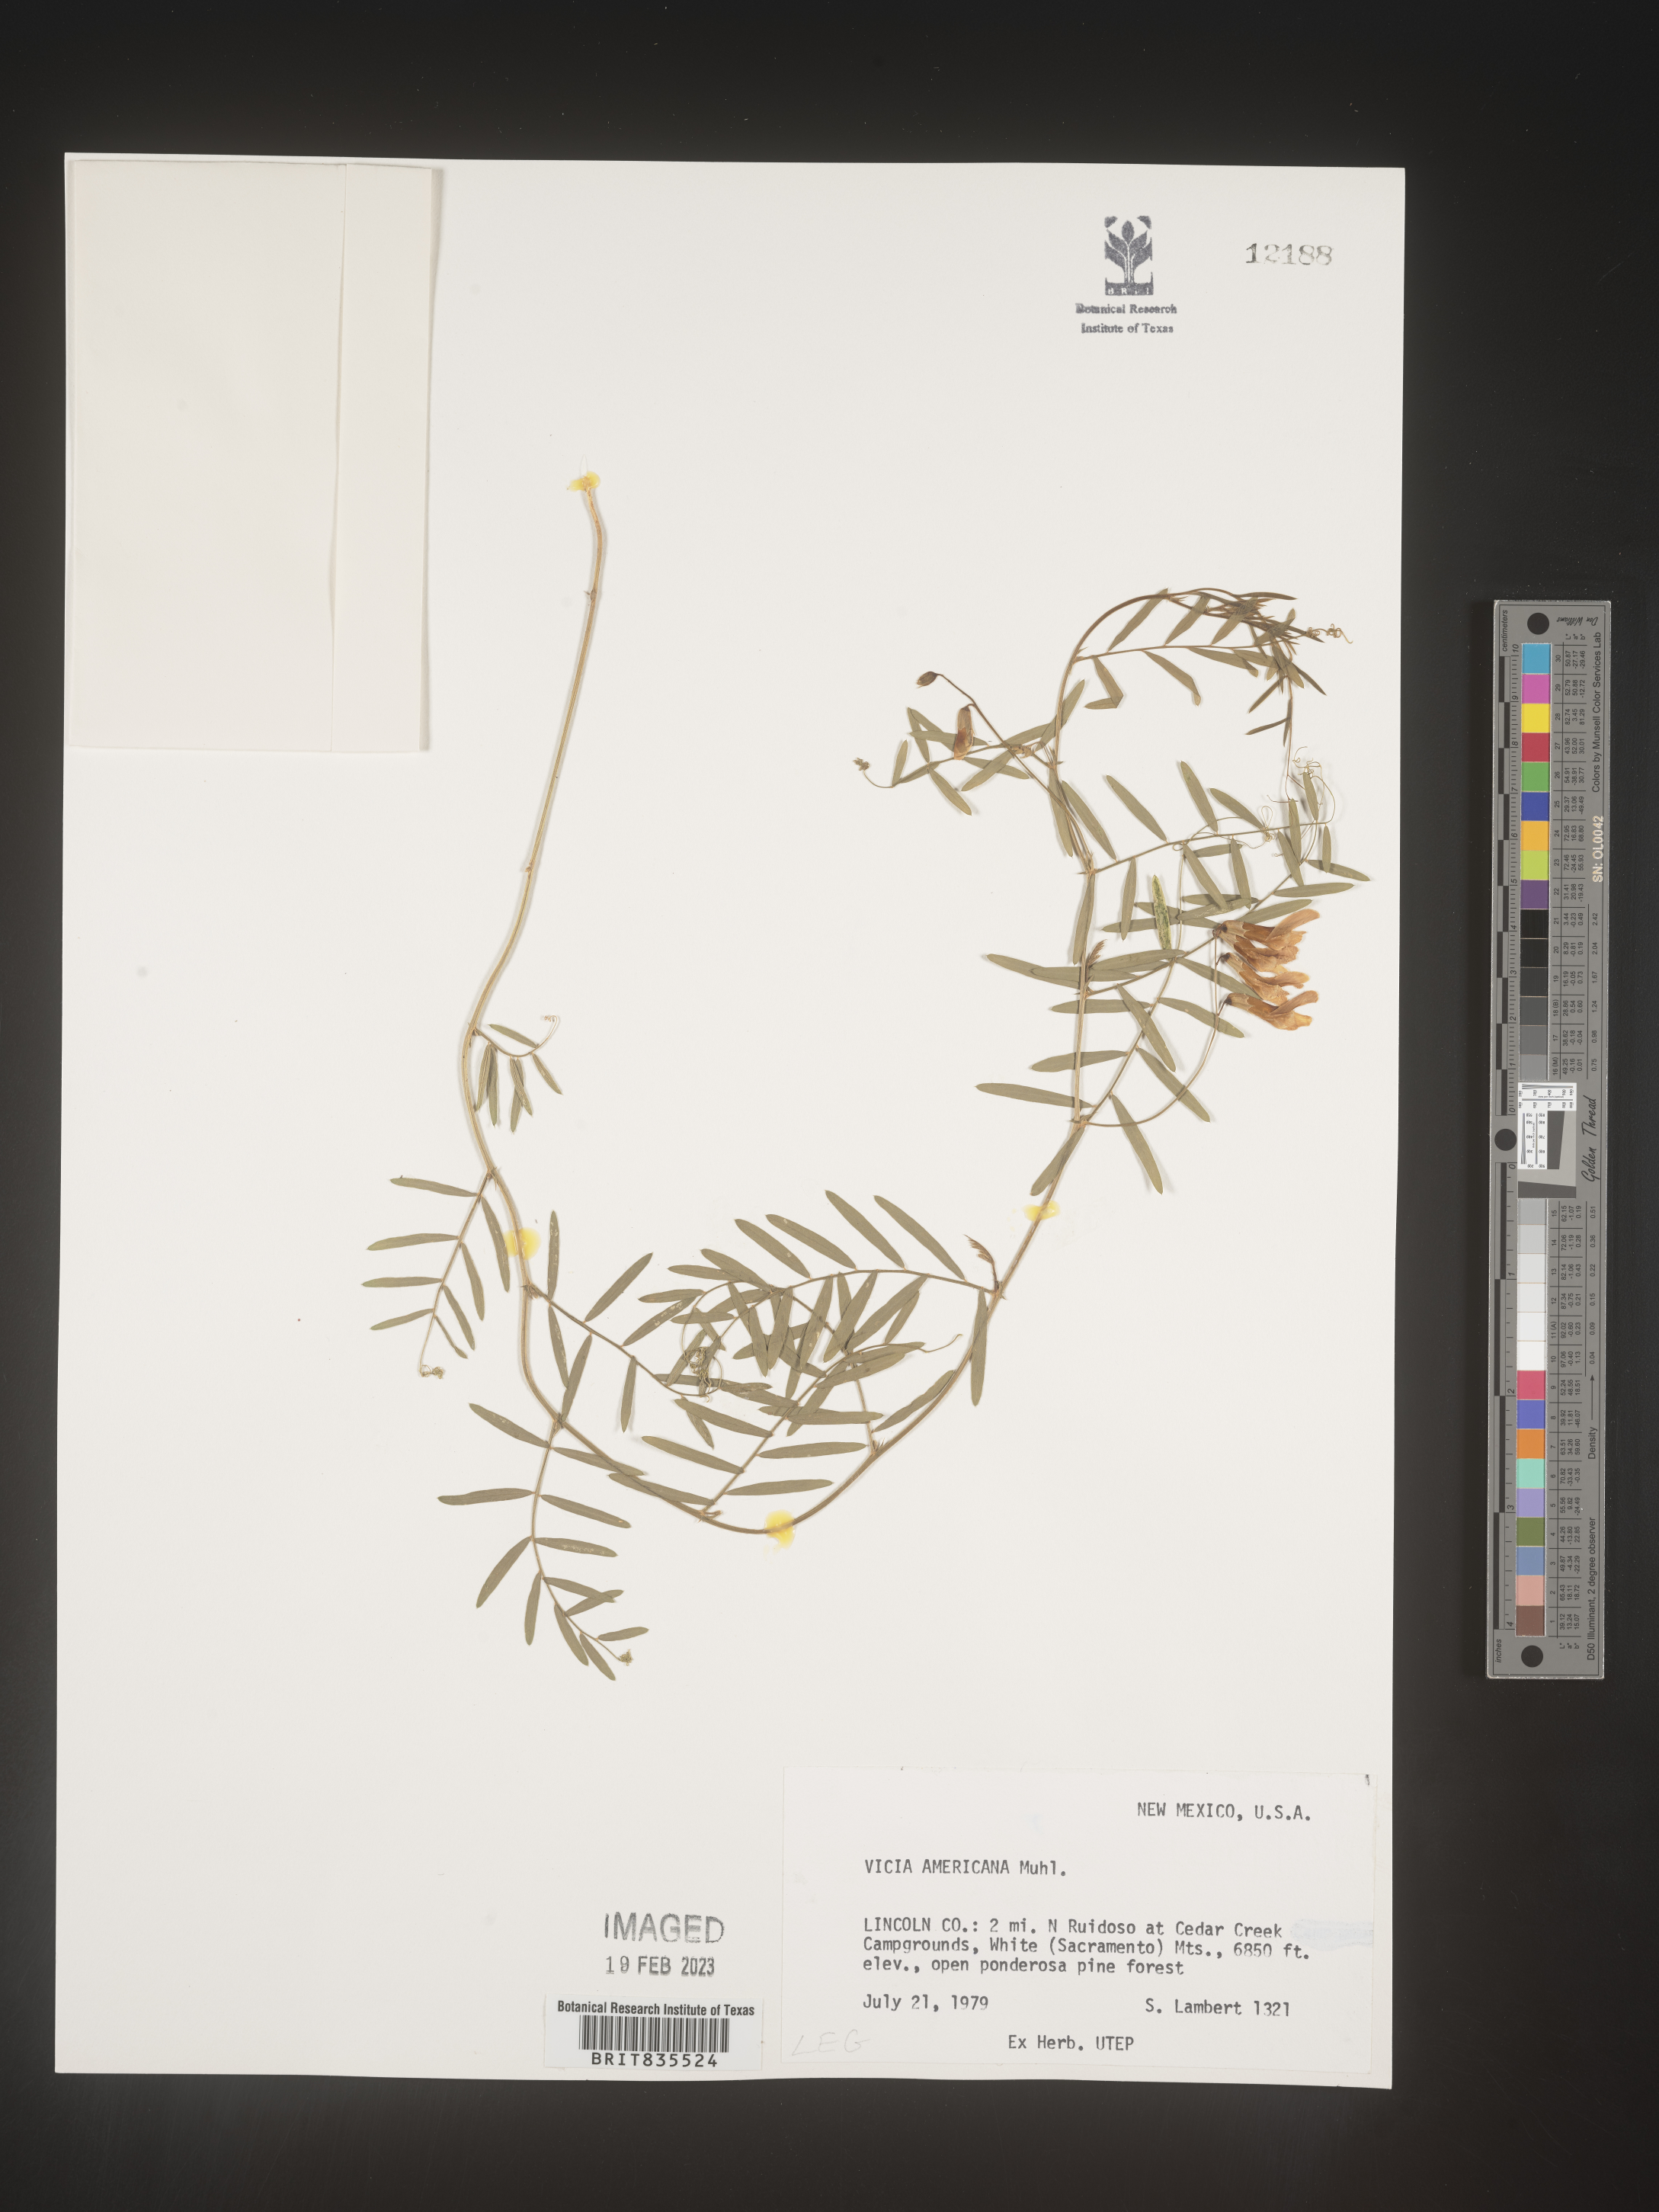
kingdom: Plantae
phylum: Tracheophyta
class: Magnoliopsida
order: Fabales
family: Fabaceae
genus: Vicia
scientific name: Vicia americana
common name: American vetch
